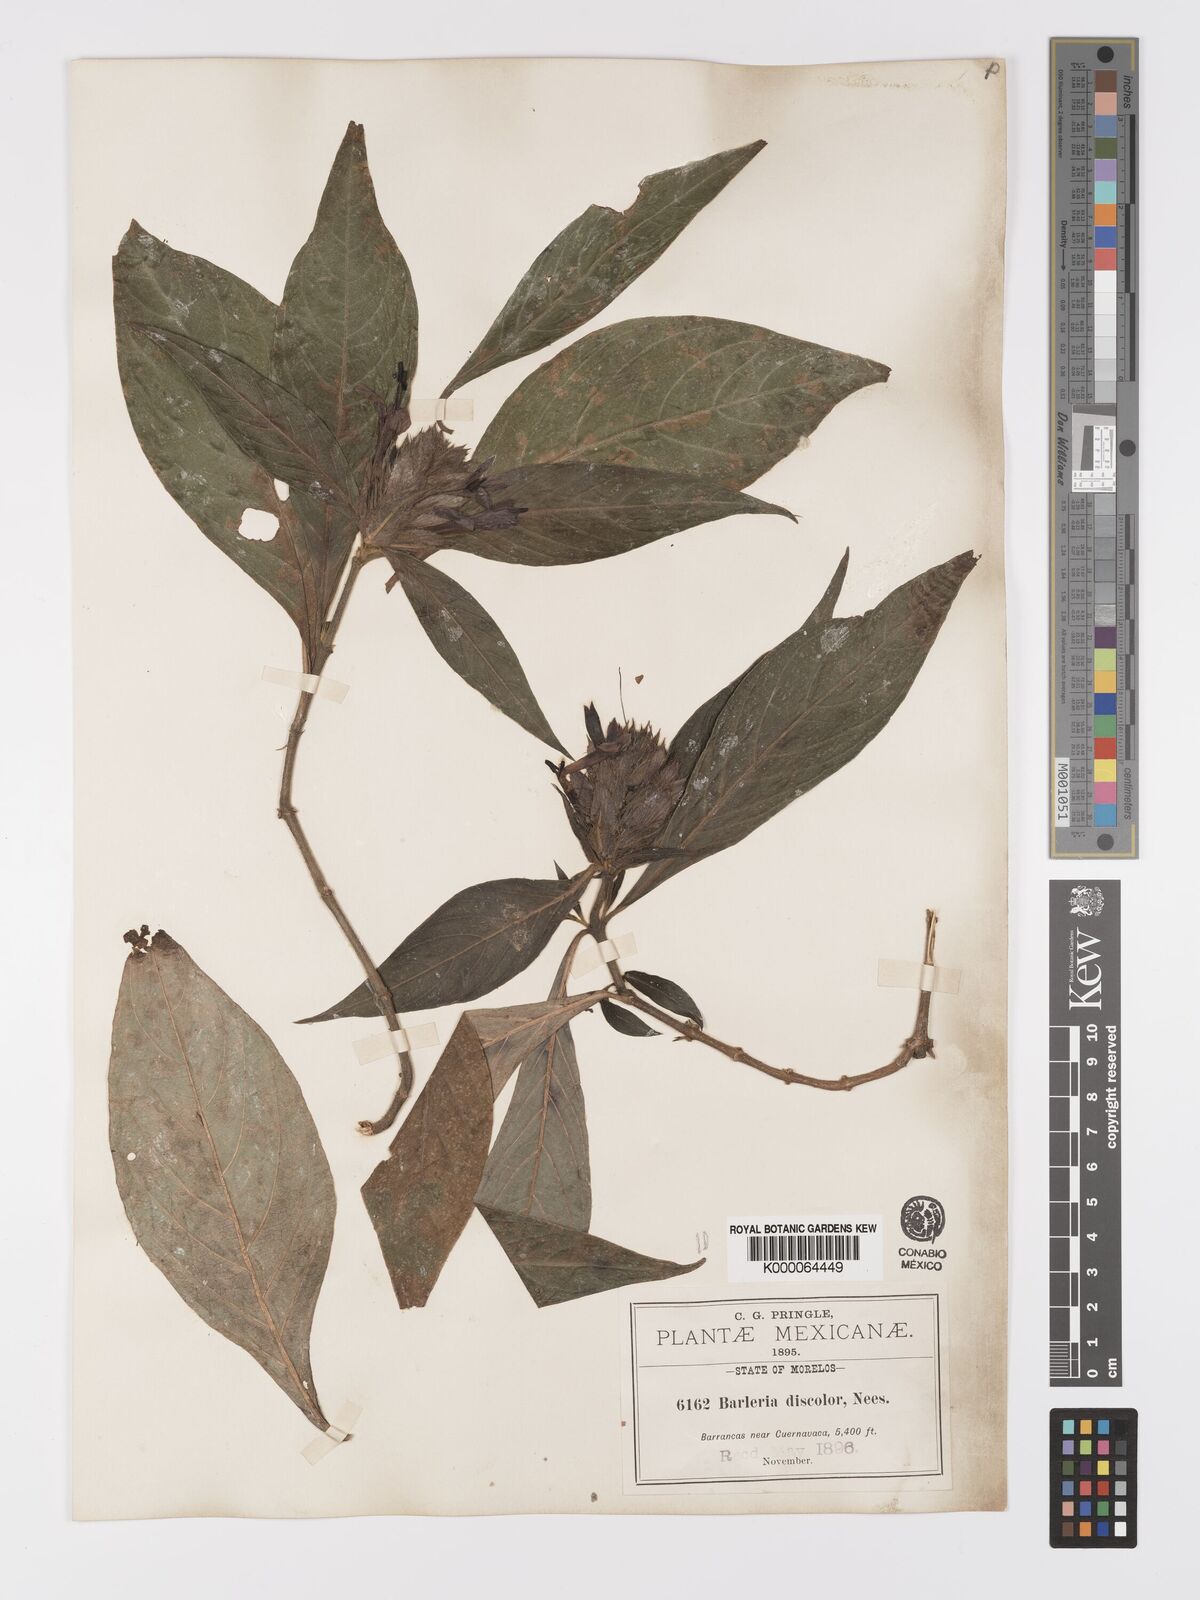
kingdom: Plantae
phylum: Tracheophyta
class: Magnoliopsida
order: Lamiales
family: Acanthaceae
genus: Barleria
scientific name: Barleria oenotheroides
